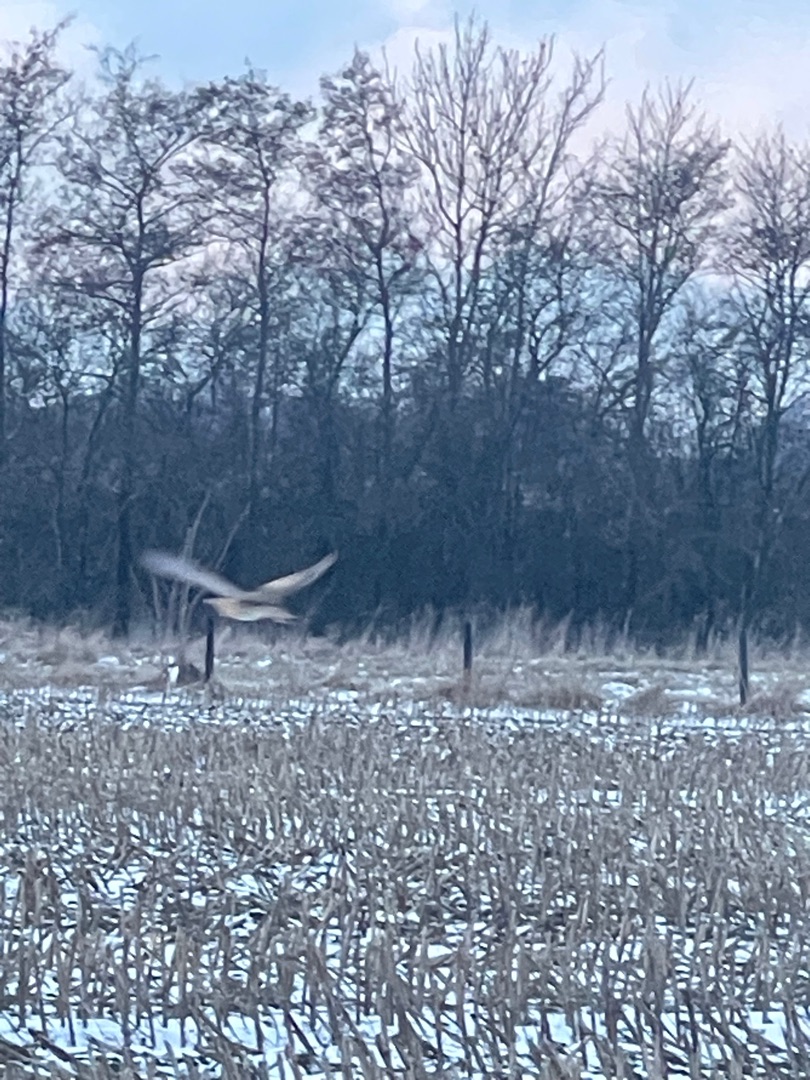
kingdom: Animalia
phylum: Chordata
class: Aves
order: Pelecaniformes
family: Ardeidae
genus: Botaurus
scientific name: Botaurus stellaris
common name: Rørdrum
